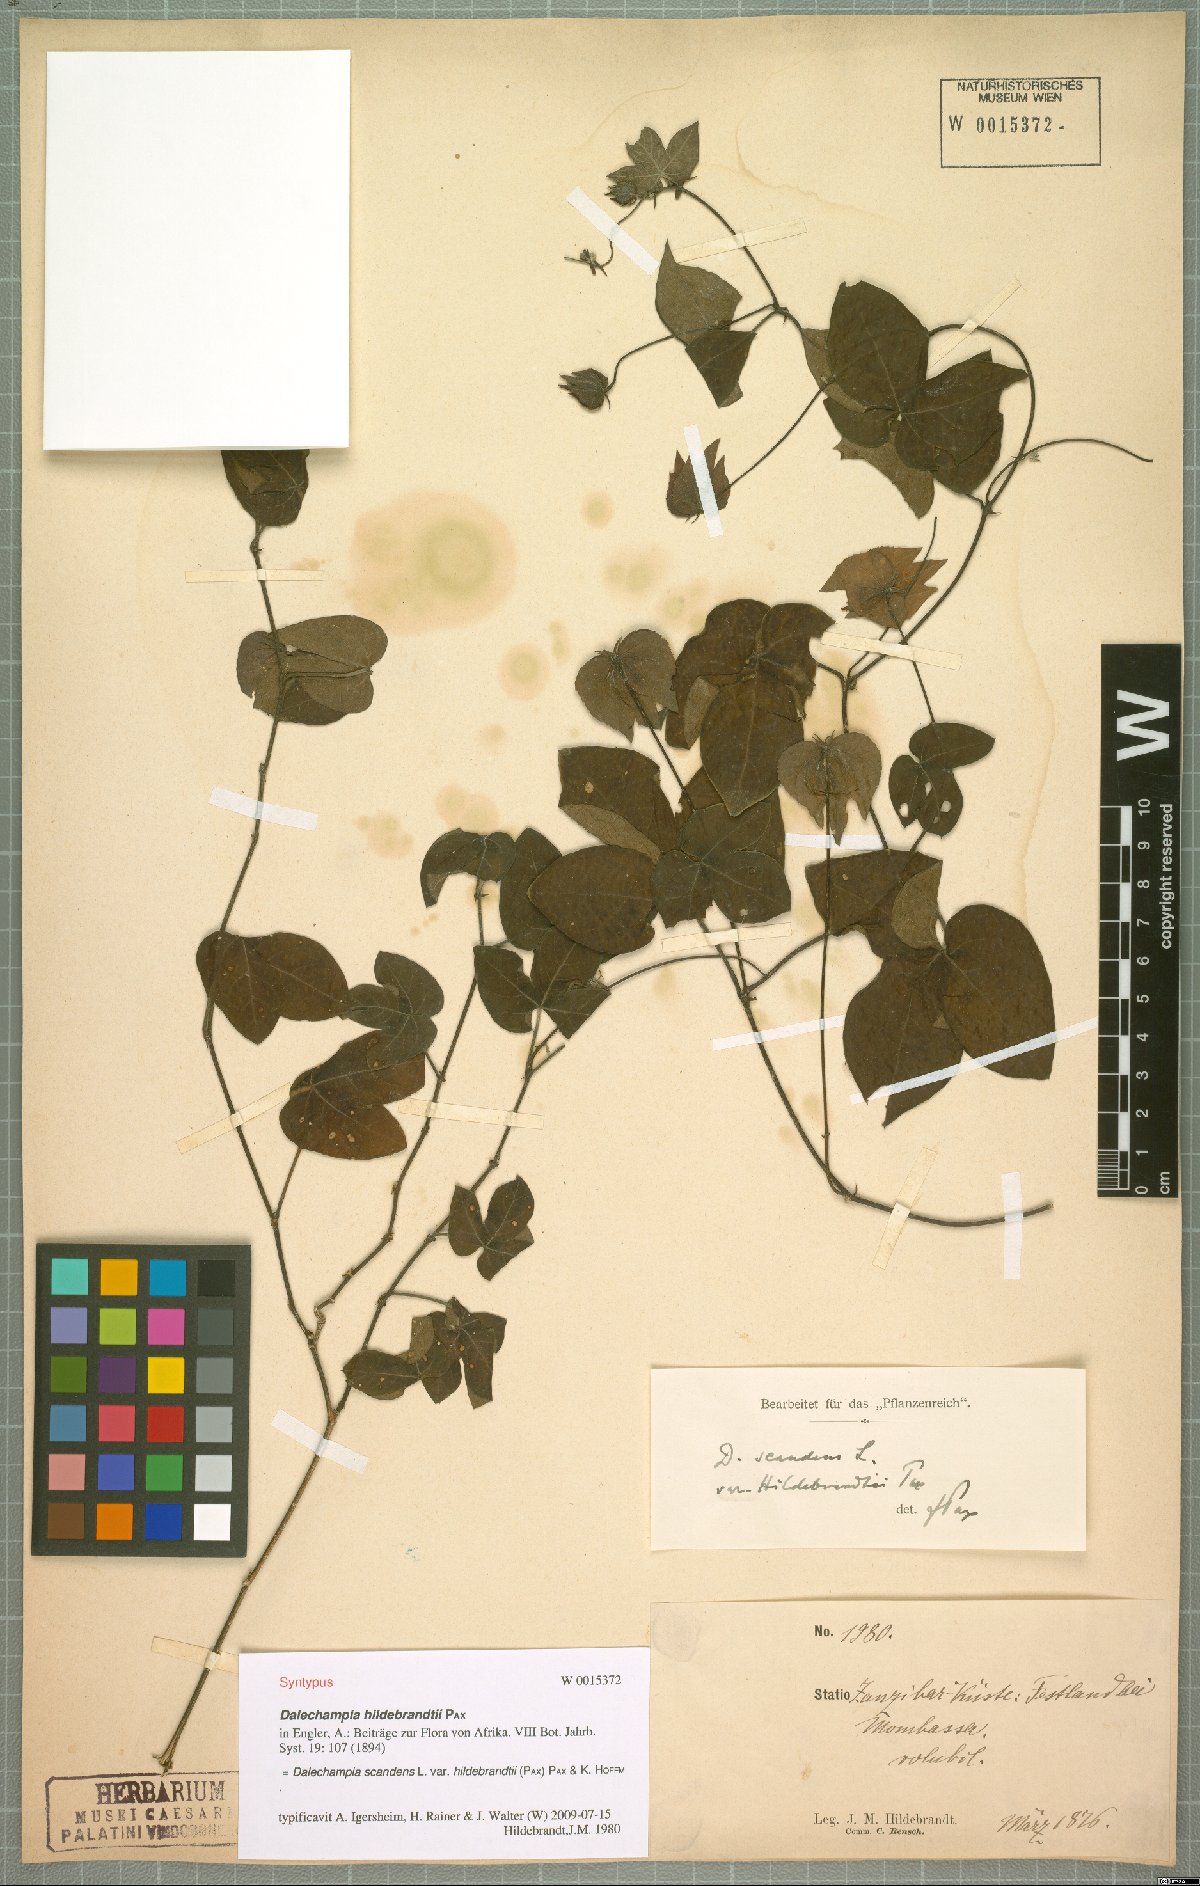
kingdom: Plantae
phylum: Tracheophyta
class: Magnoliopsida
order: Malpighiales
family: Euphorbiaceae
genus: Dalechampia
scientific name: Dalechampia scandens
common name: Spurgecreeper
